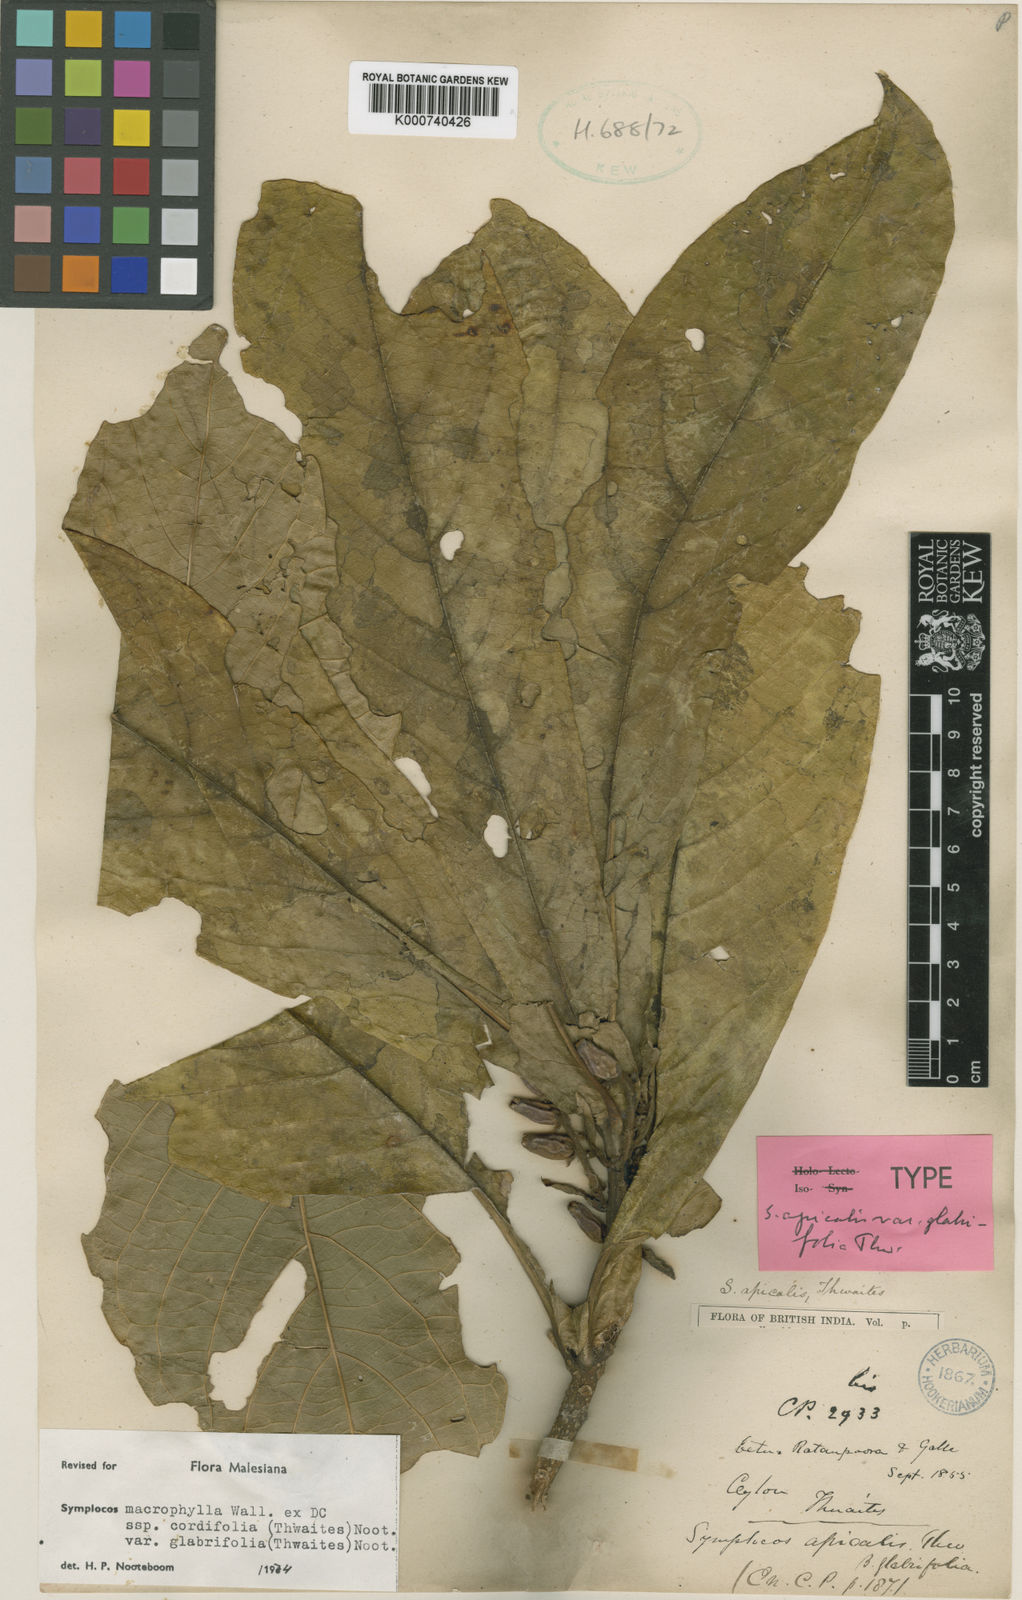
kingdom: Plantae
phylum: Tracheophyta
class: Magnoliopsida
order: Ericales
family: Symplocaceae
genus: Symplocos
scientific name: Symplocos
